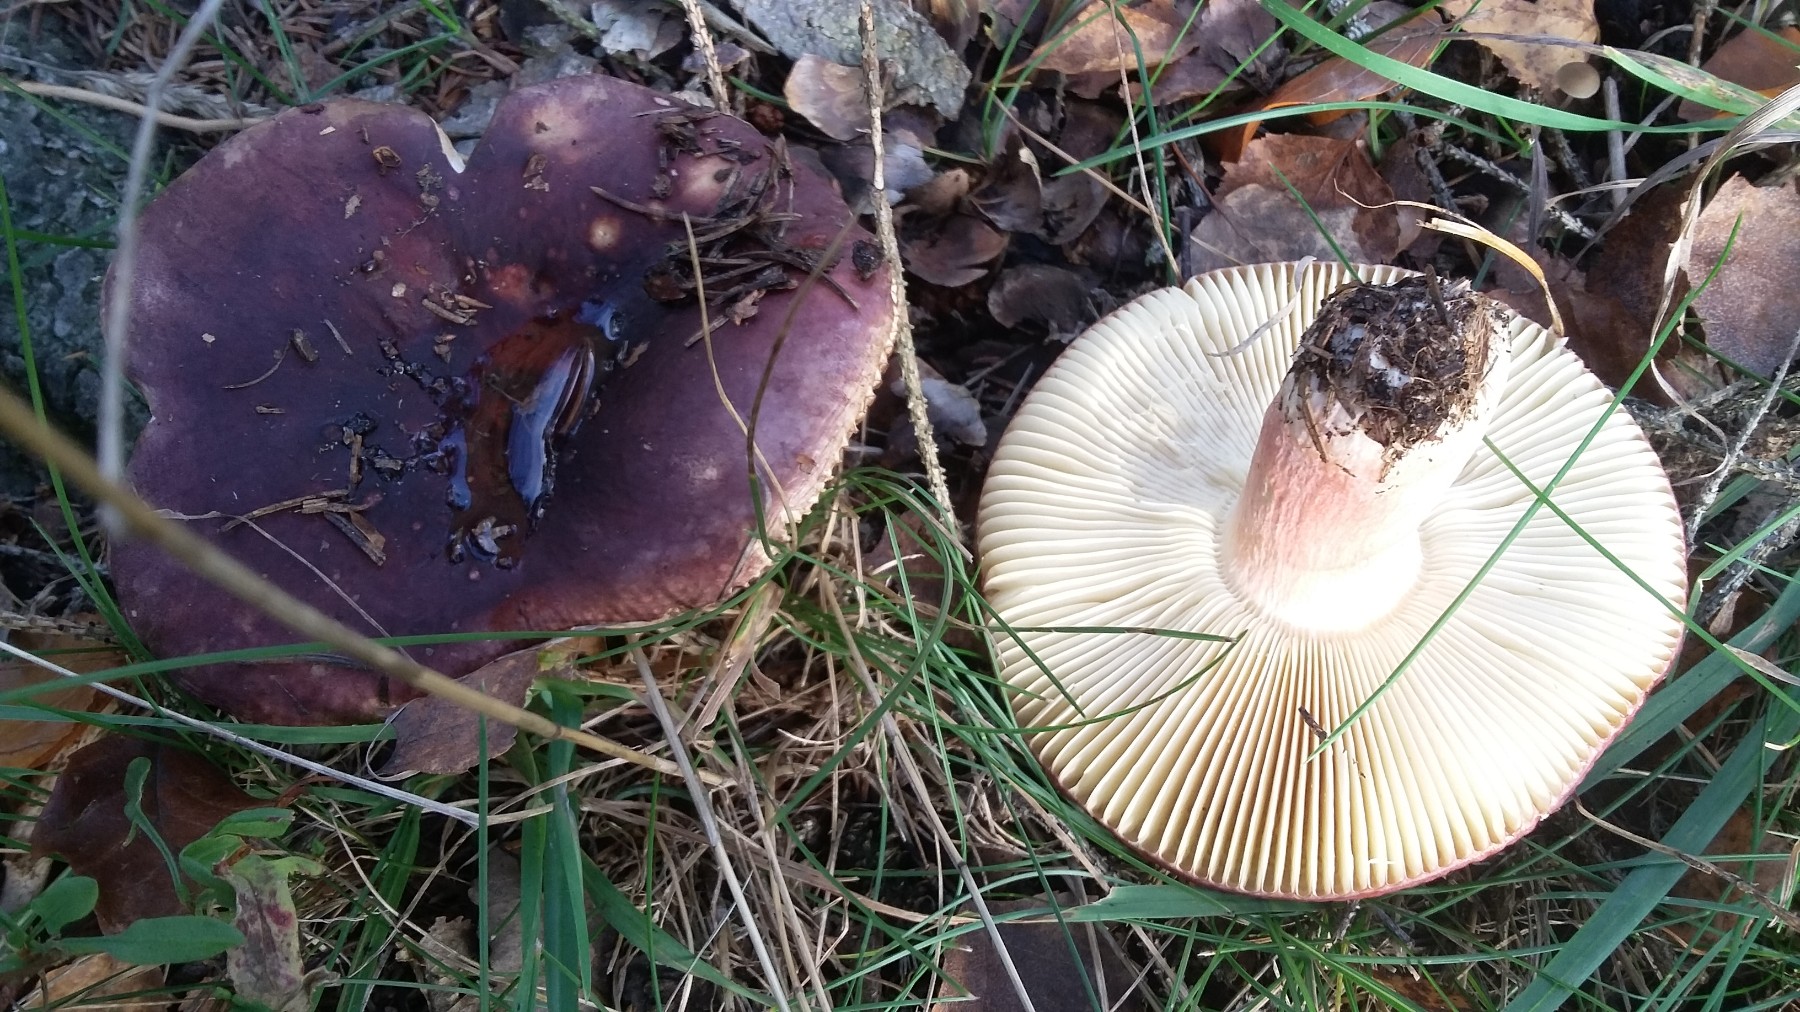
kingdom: Fungi
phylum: Basidiomycota
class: Agaricomycetes
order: Russulales
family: Russulaceae
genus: Russula
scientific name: Russula xerampelina
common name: hummer-skørhat
